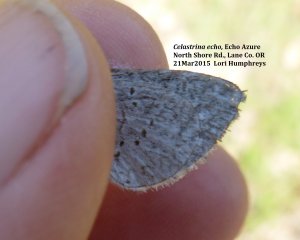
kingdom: Animalia
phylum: Arthropoda
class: Insecta
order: Lepidoptera
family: Lycaenidae
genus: Celastrina
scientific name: Celastrina ladon
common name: Spring Azure
